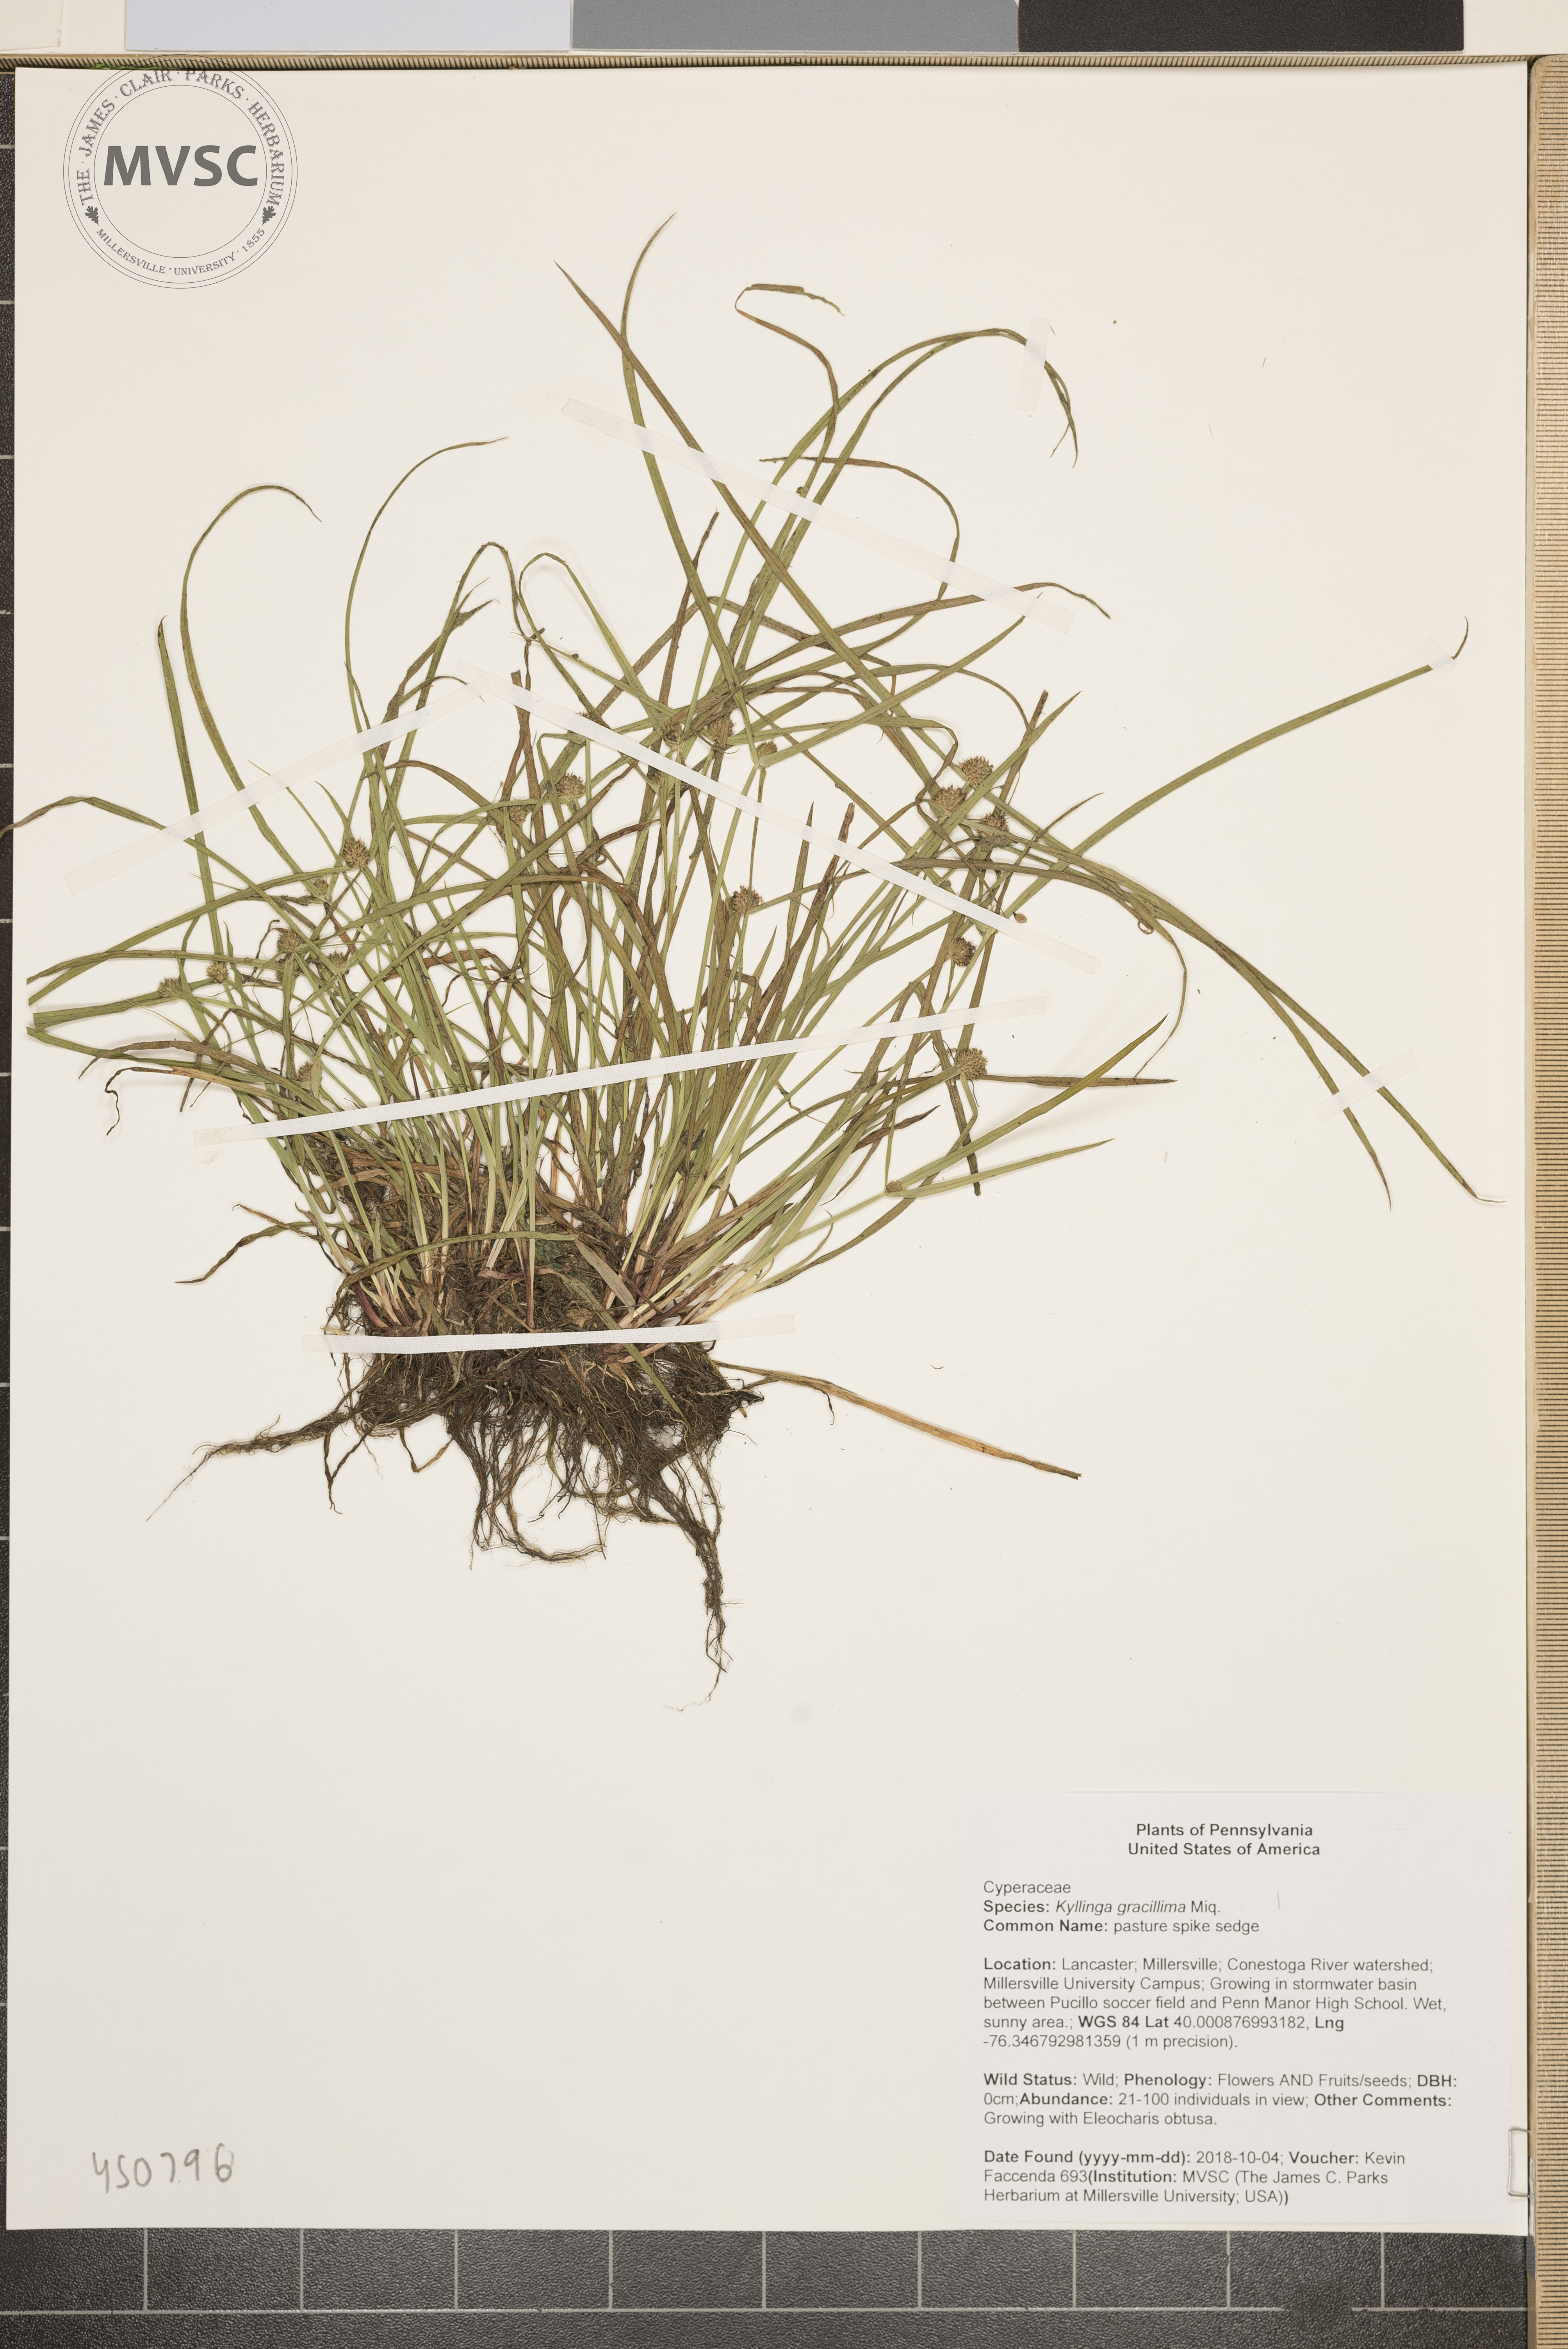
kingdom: Plantae
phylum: Tracheophyta
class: Liliopsida
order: Poales
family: Cyperaceae
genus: Cyperus
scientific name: Cyperus brevifolioides
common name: pasture spike sedge
